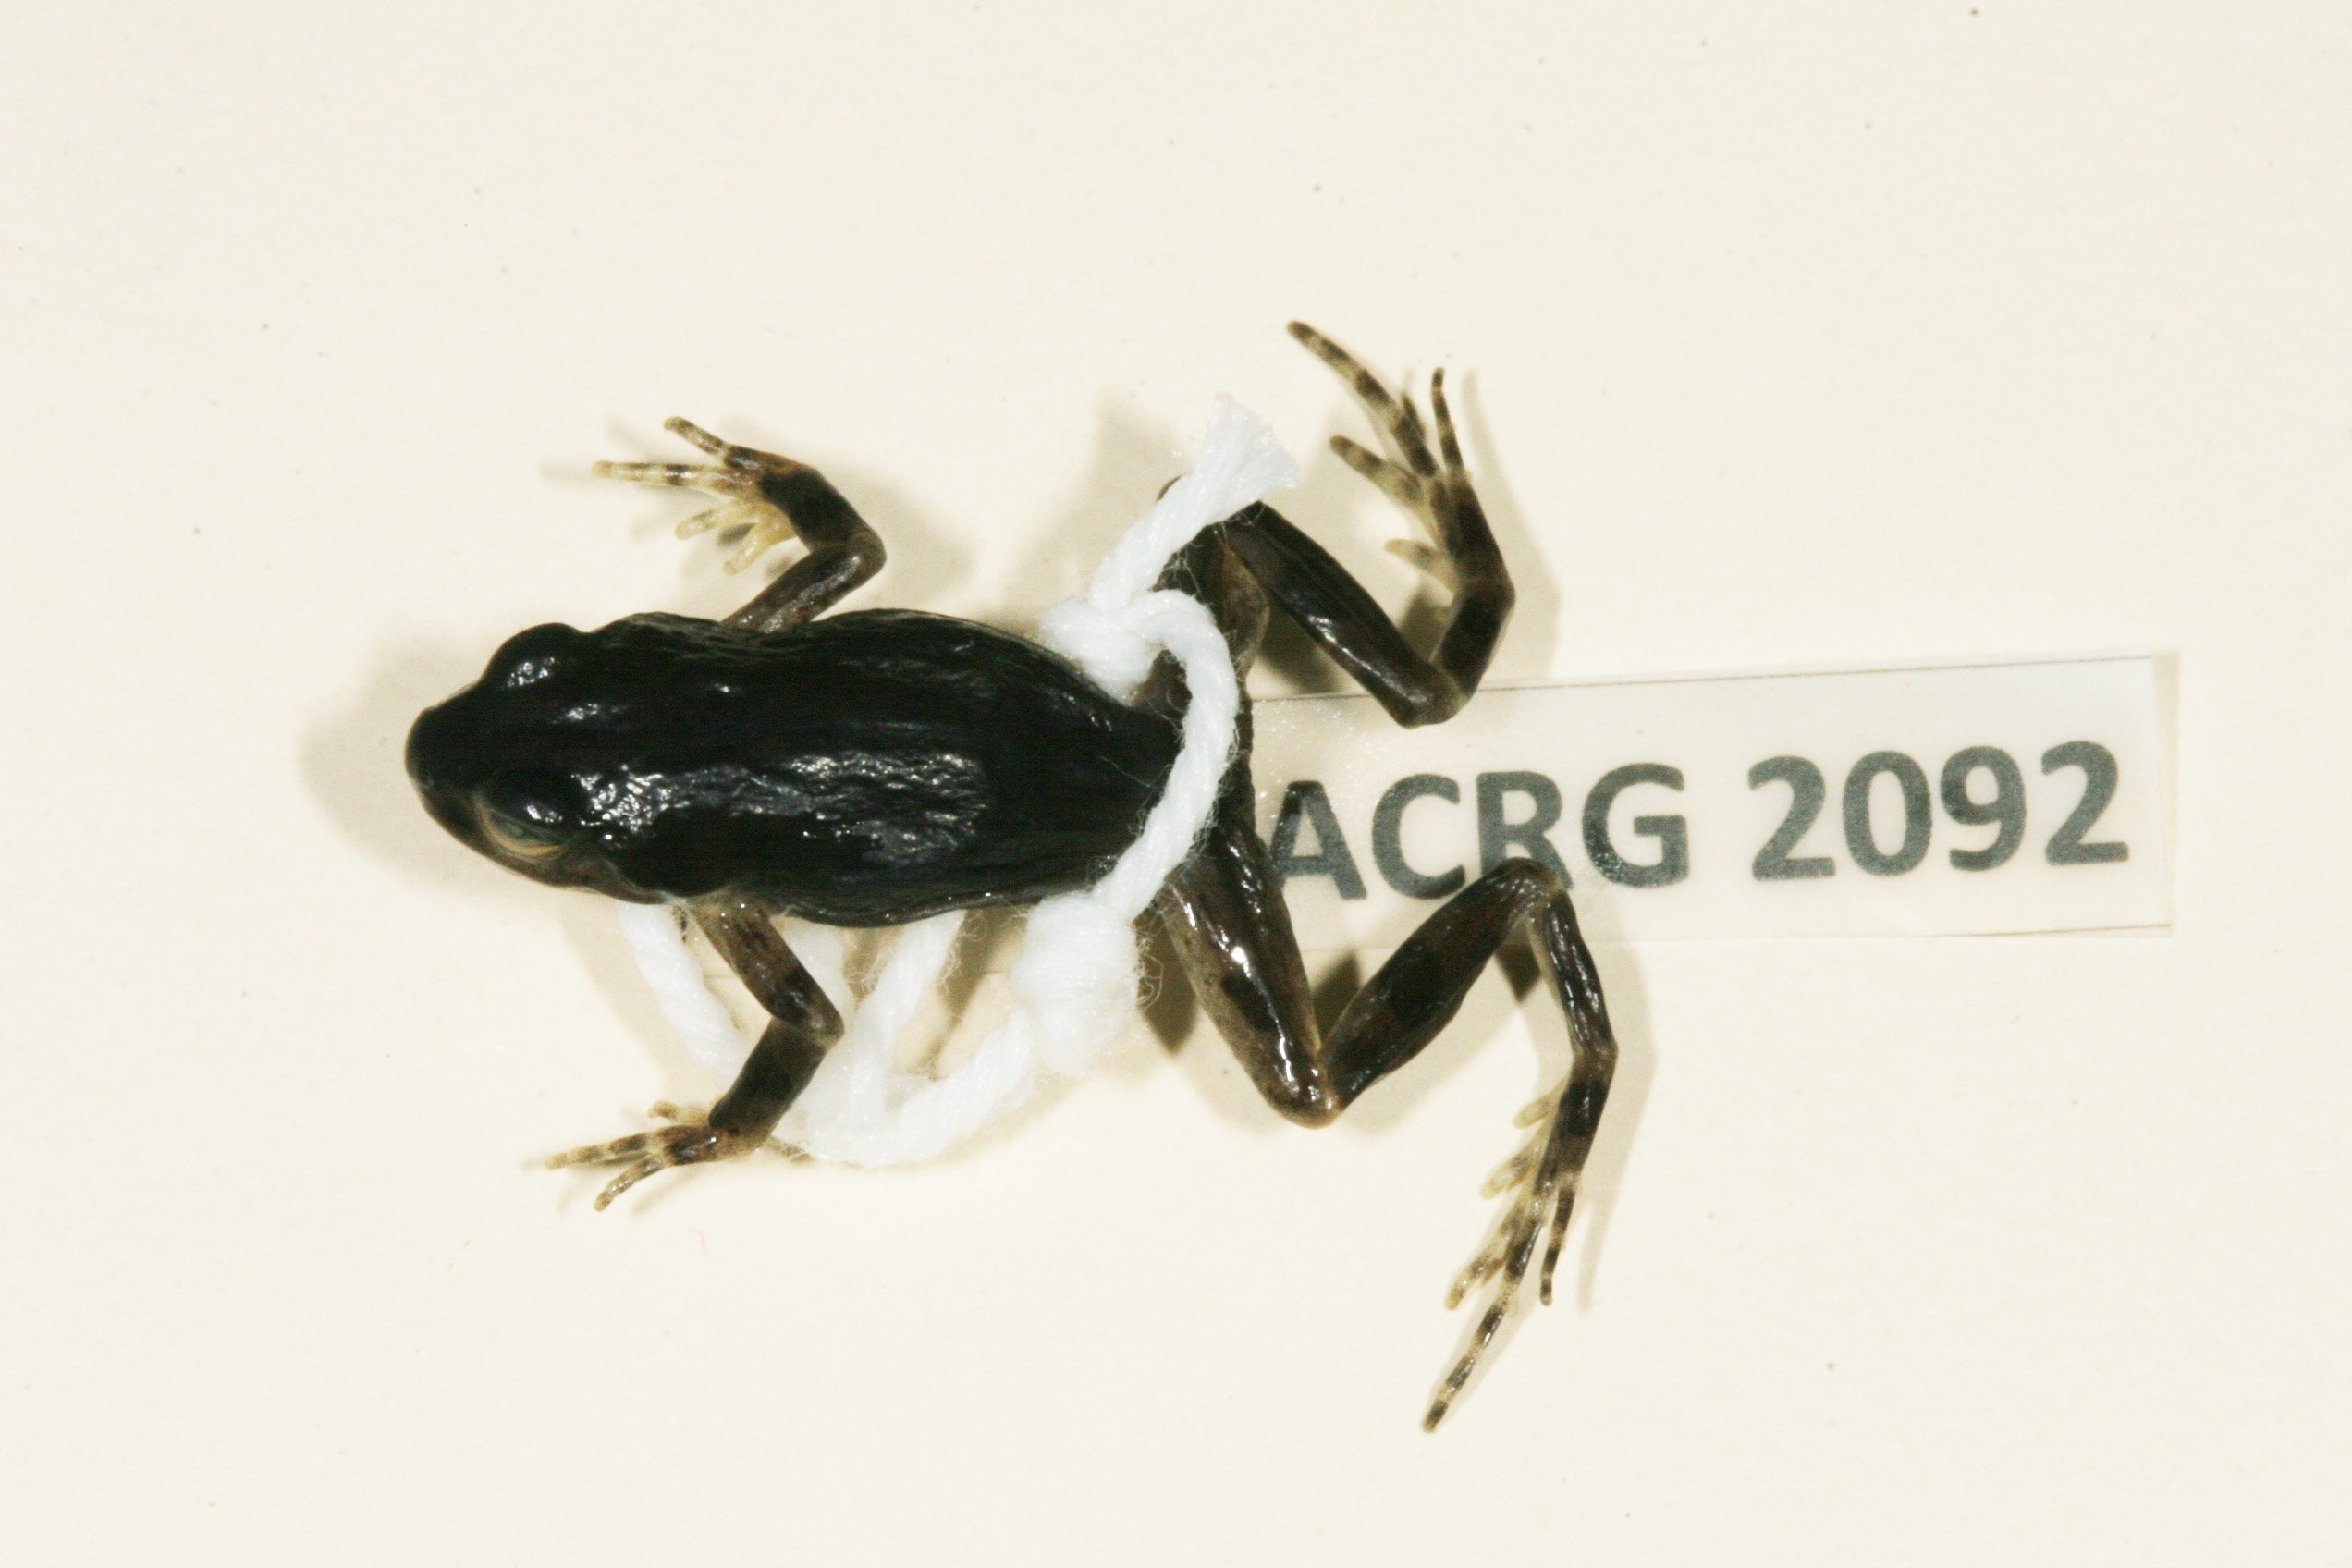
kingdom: Animalia
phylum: Chordata
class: Amphibia
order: Anura
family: Pyxicephalidae
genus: Cacosternum
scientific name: Cacosternum karooicum
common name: Karoo dainty frog
